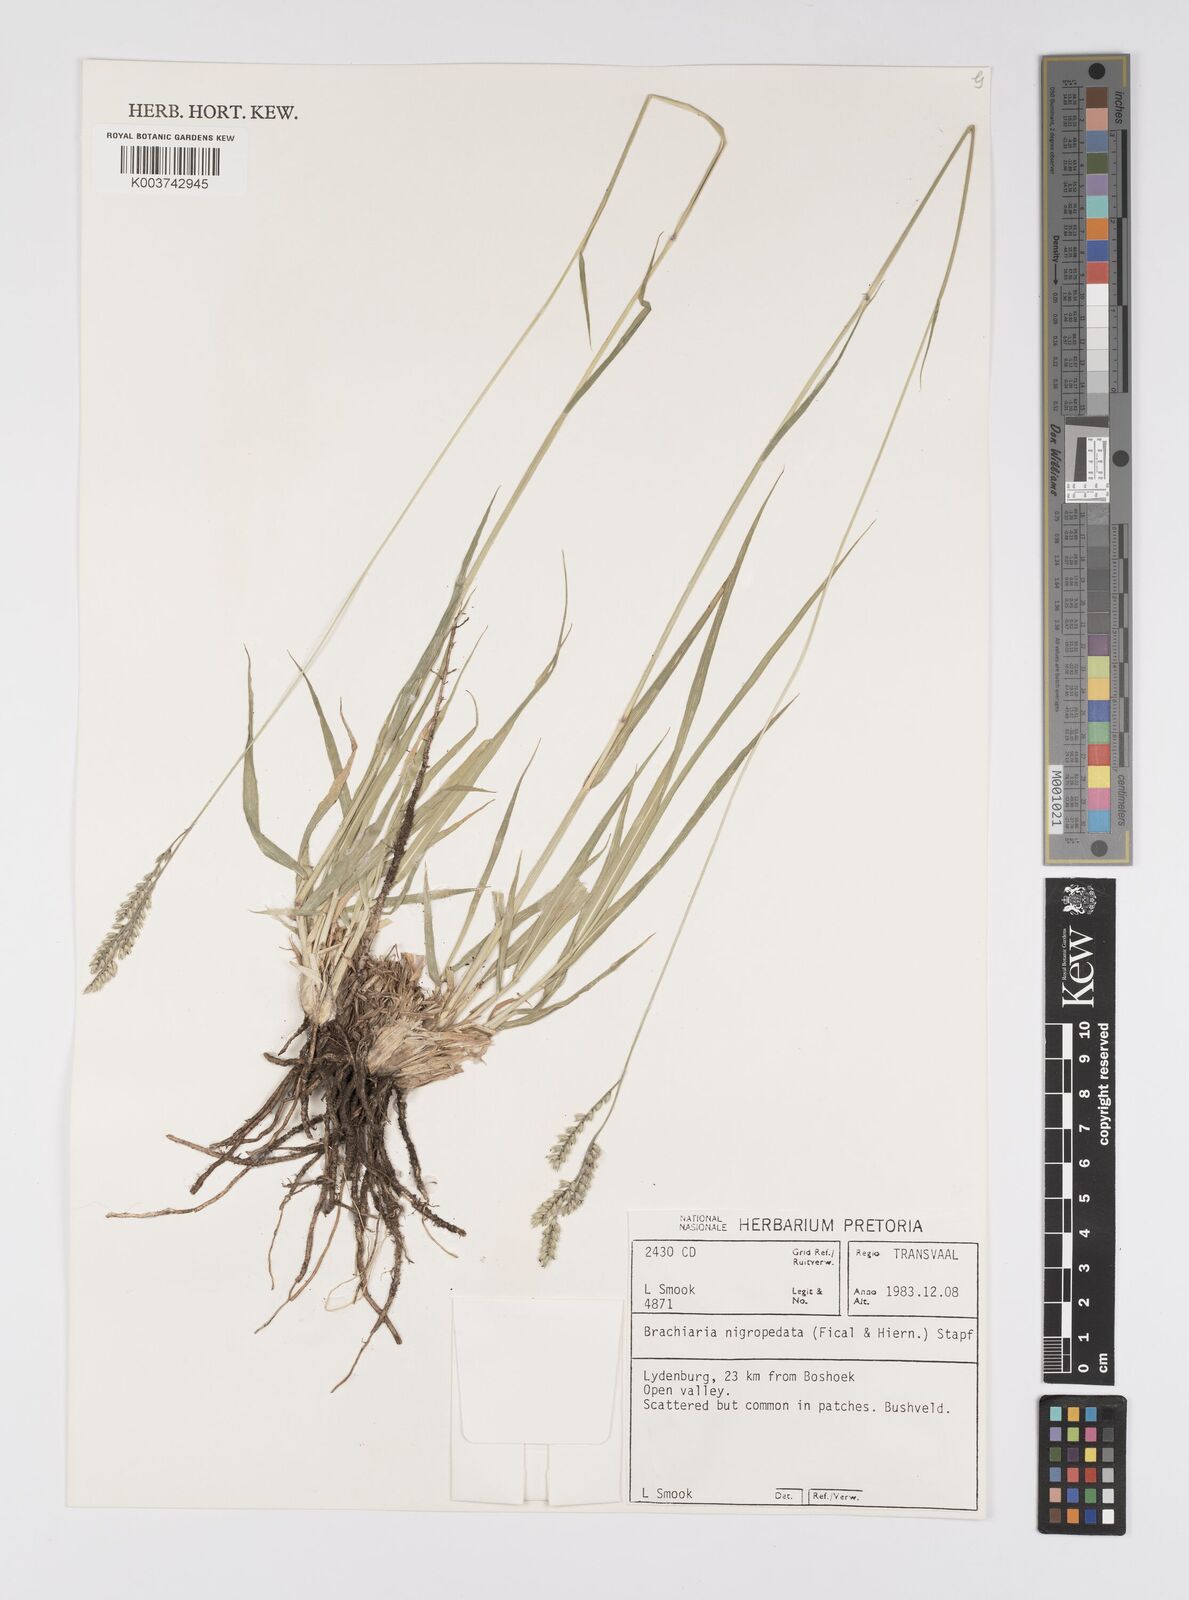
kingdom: Plantae
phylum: Tracheophyta
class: Liliopsida
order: Poales
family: Poaceae
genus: Urochloa
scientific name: Urochloa nigropedata
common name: Spotted signal grass
